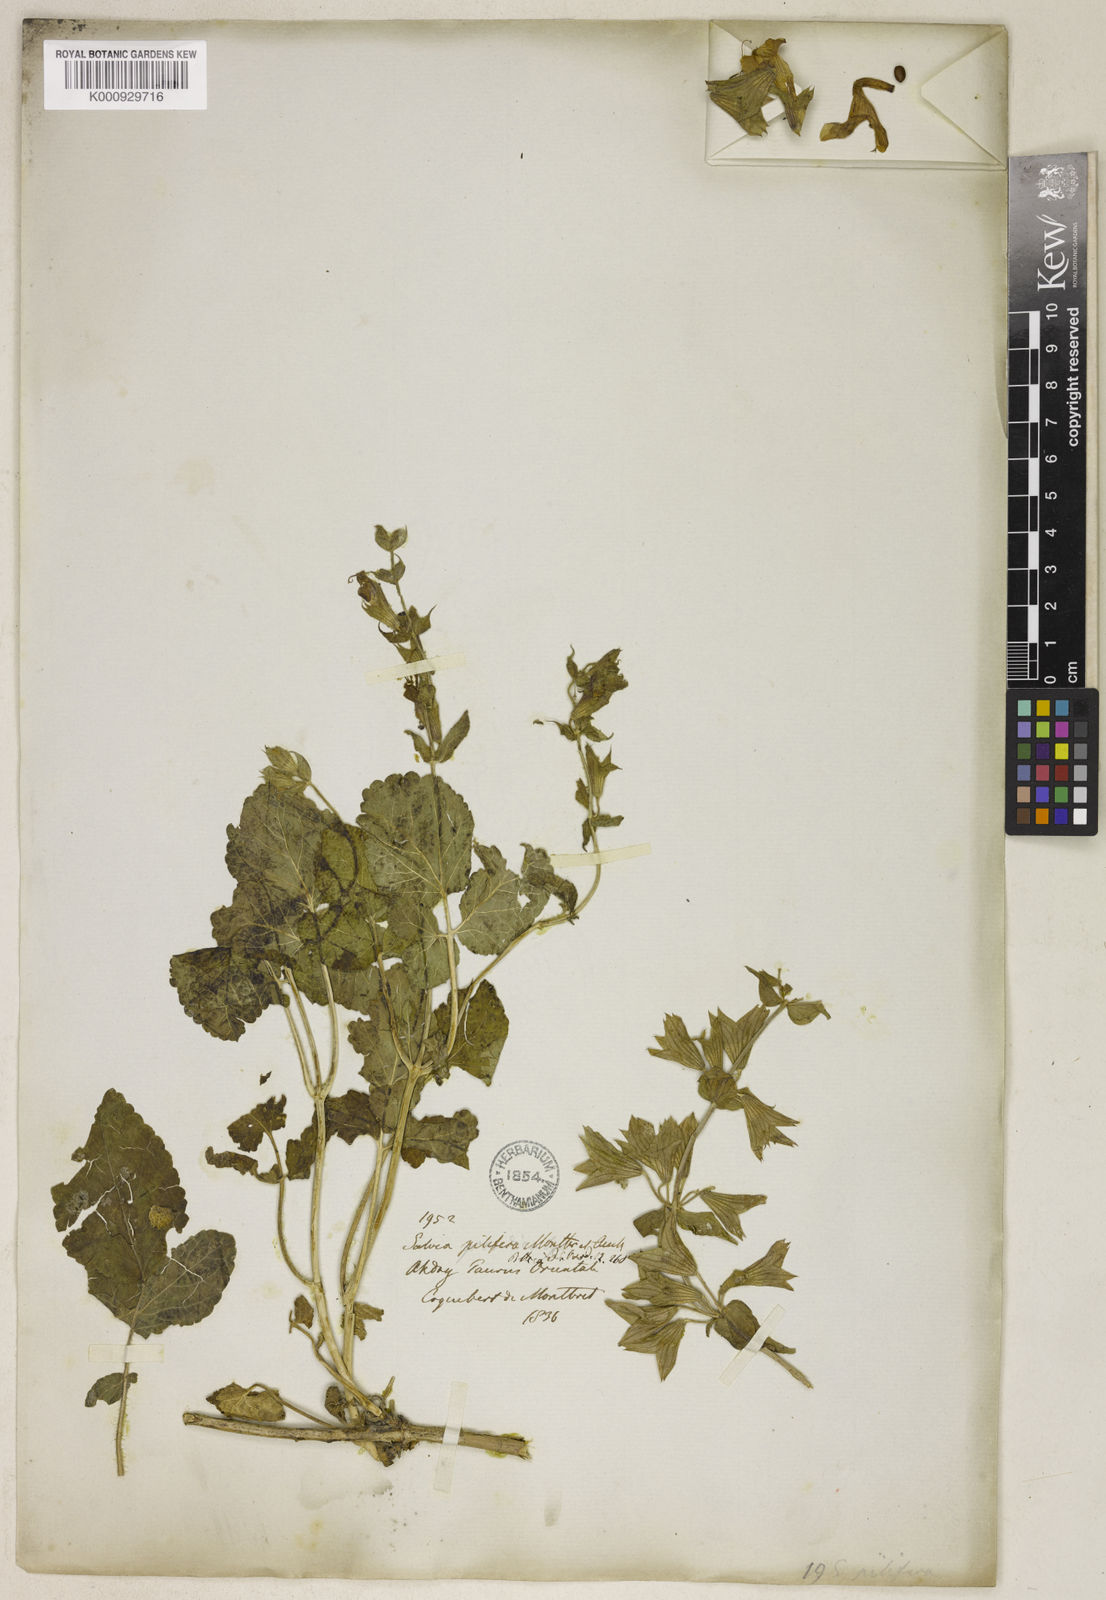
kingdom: Plantae
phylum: Tracheophyta
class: Magnoliopsida
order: Lamiales
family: Lamiaceae
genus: Salvia
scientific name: Salvia pilifera
